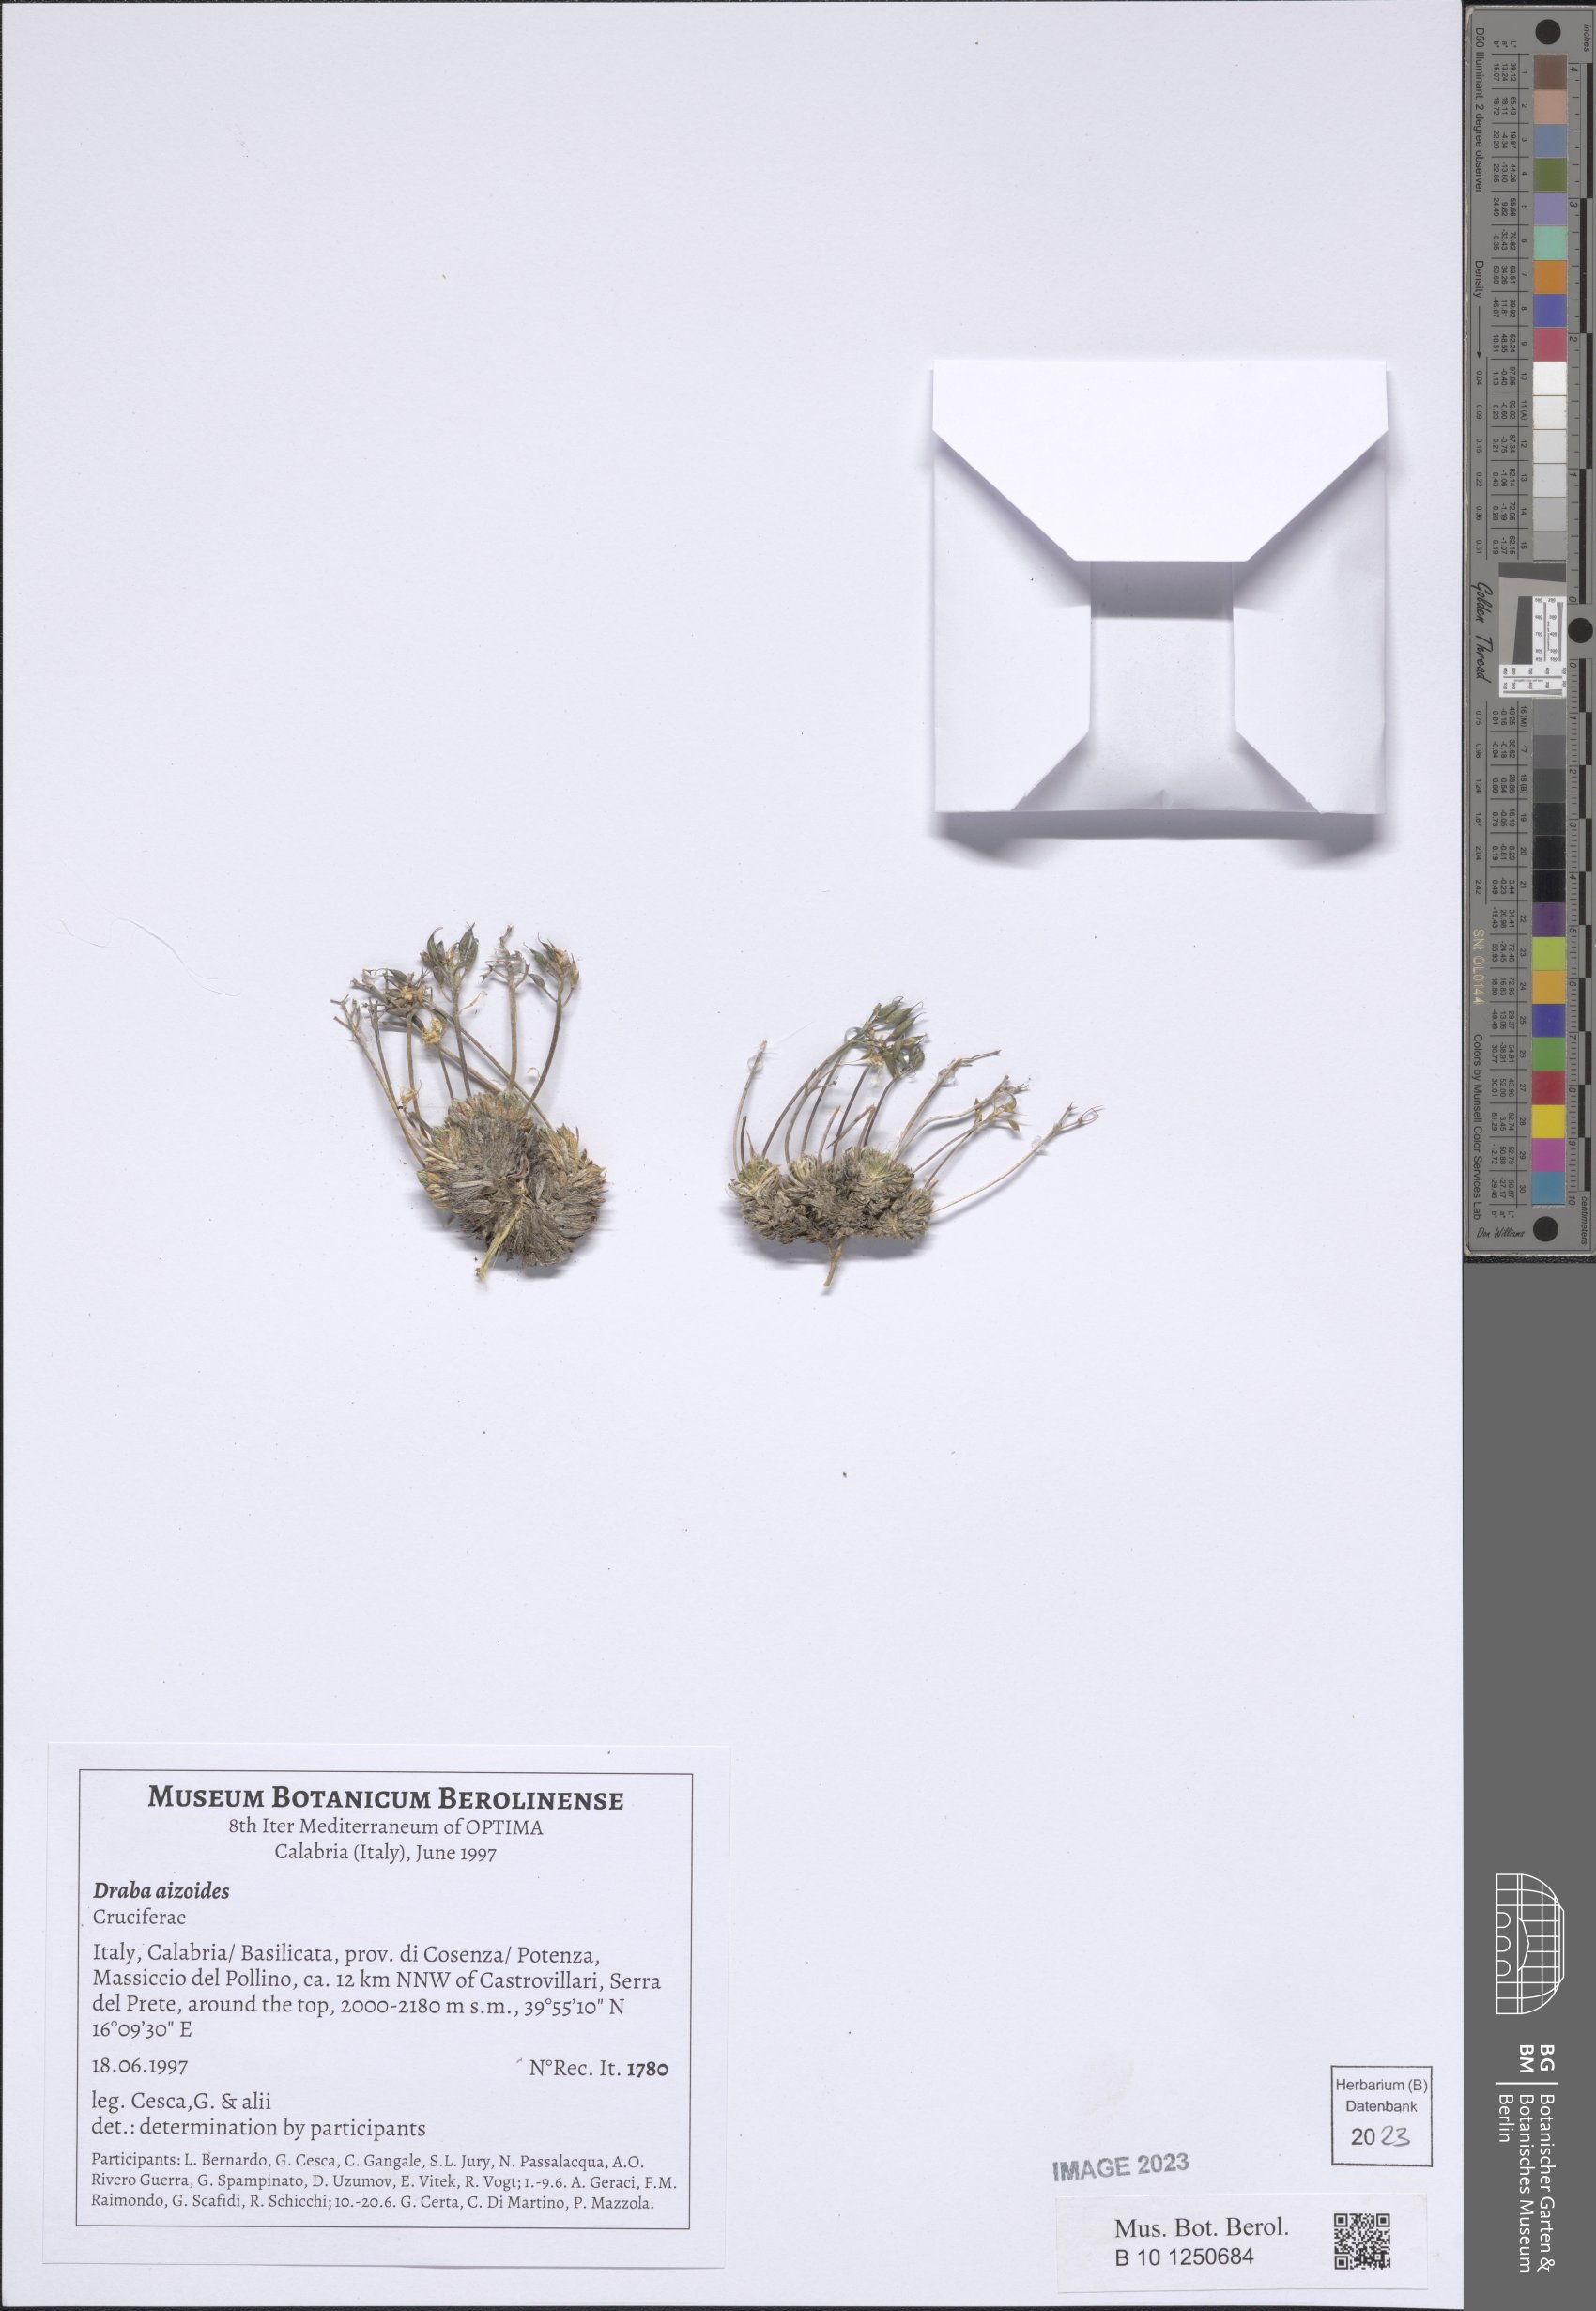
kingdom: Plantae
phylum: Tracheophyta
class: Magnoliopsida
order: Brassicales
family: Brassicaceae
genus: Draba
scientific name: Draba aizoides
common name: Yellow whitlowgrass
